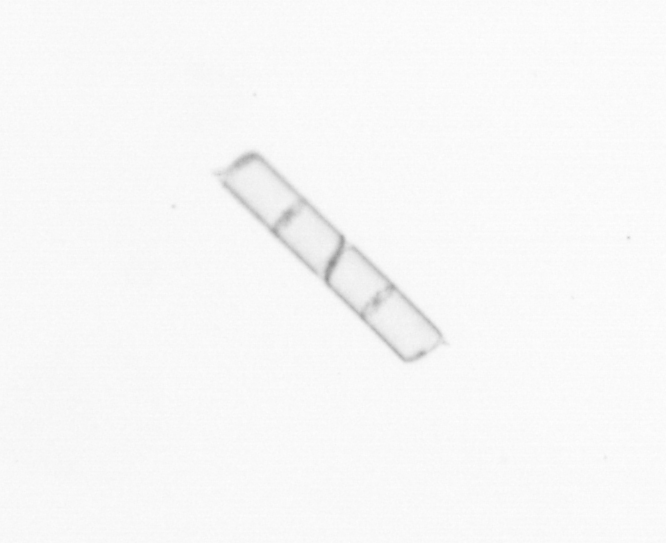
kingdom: Chromista
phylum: Ochrophyta
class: Bacillariophyceae
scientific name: Bacillariophyceae
